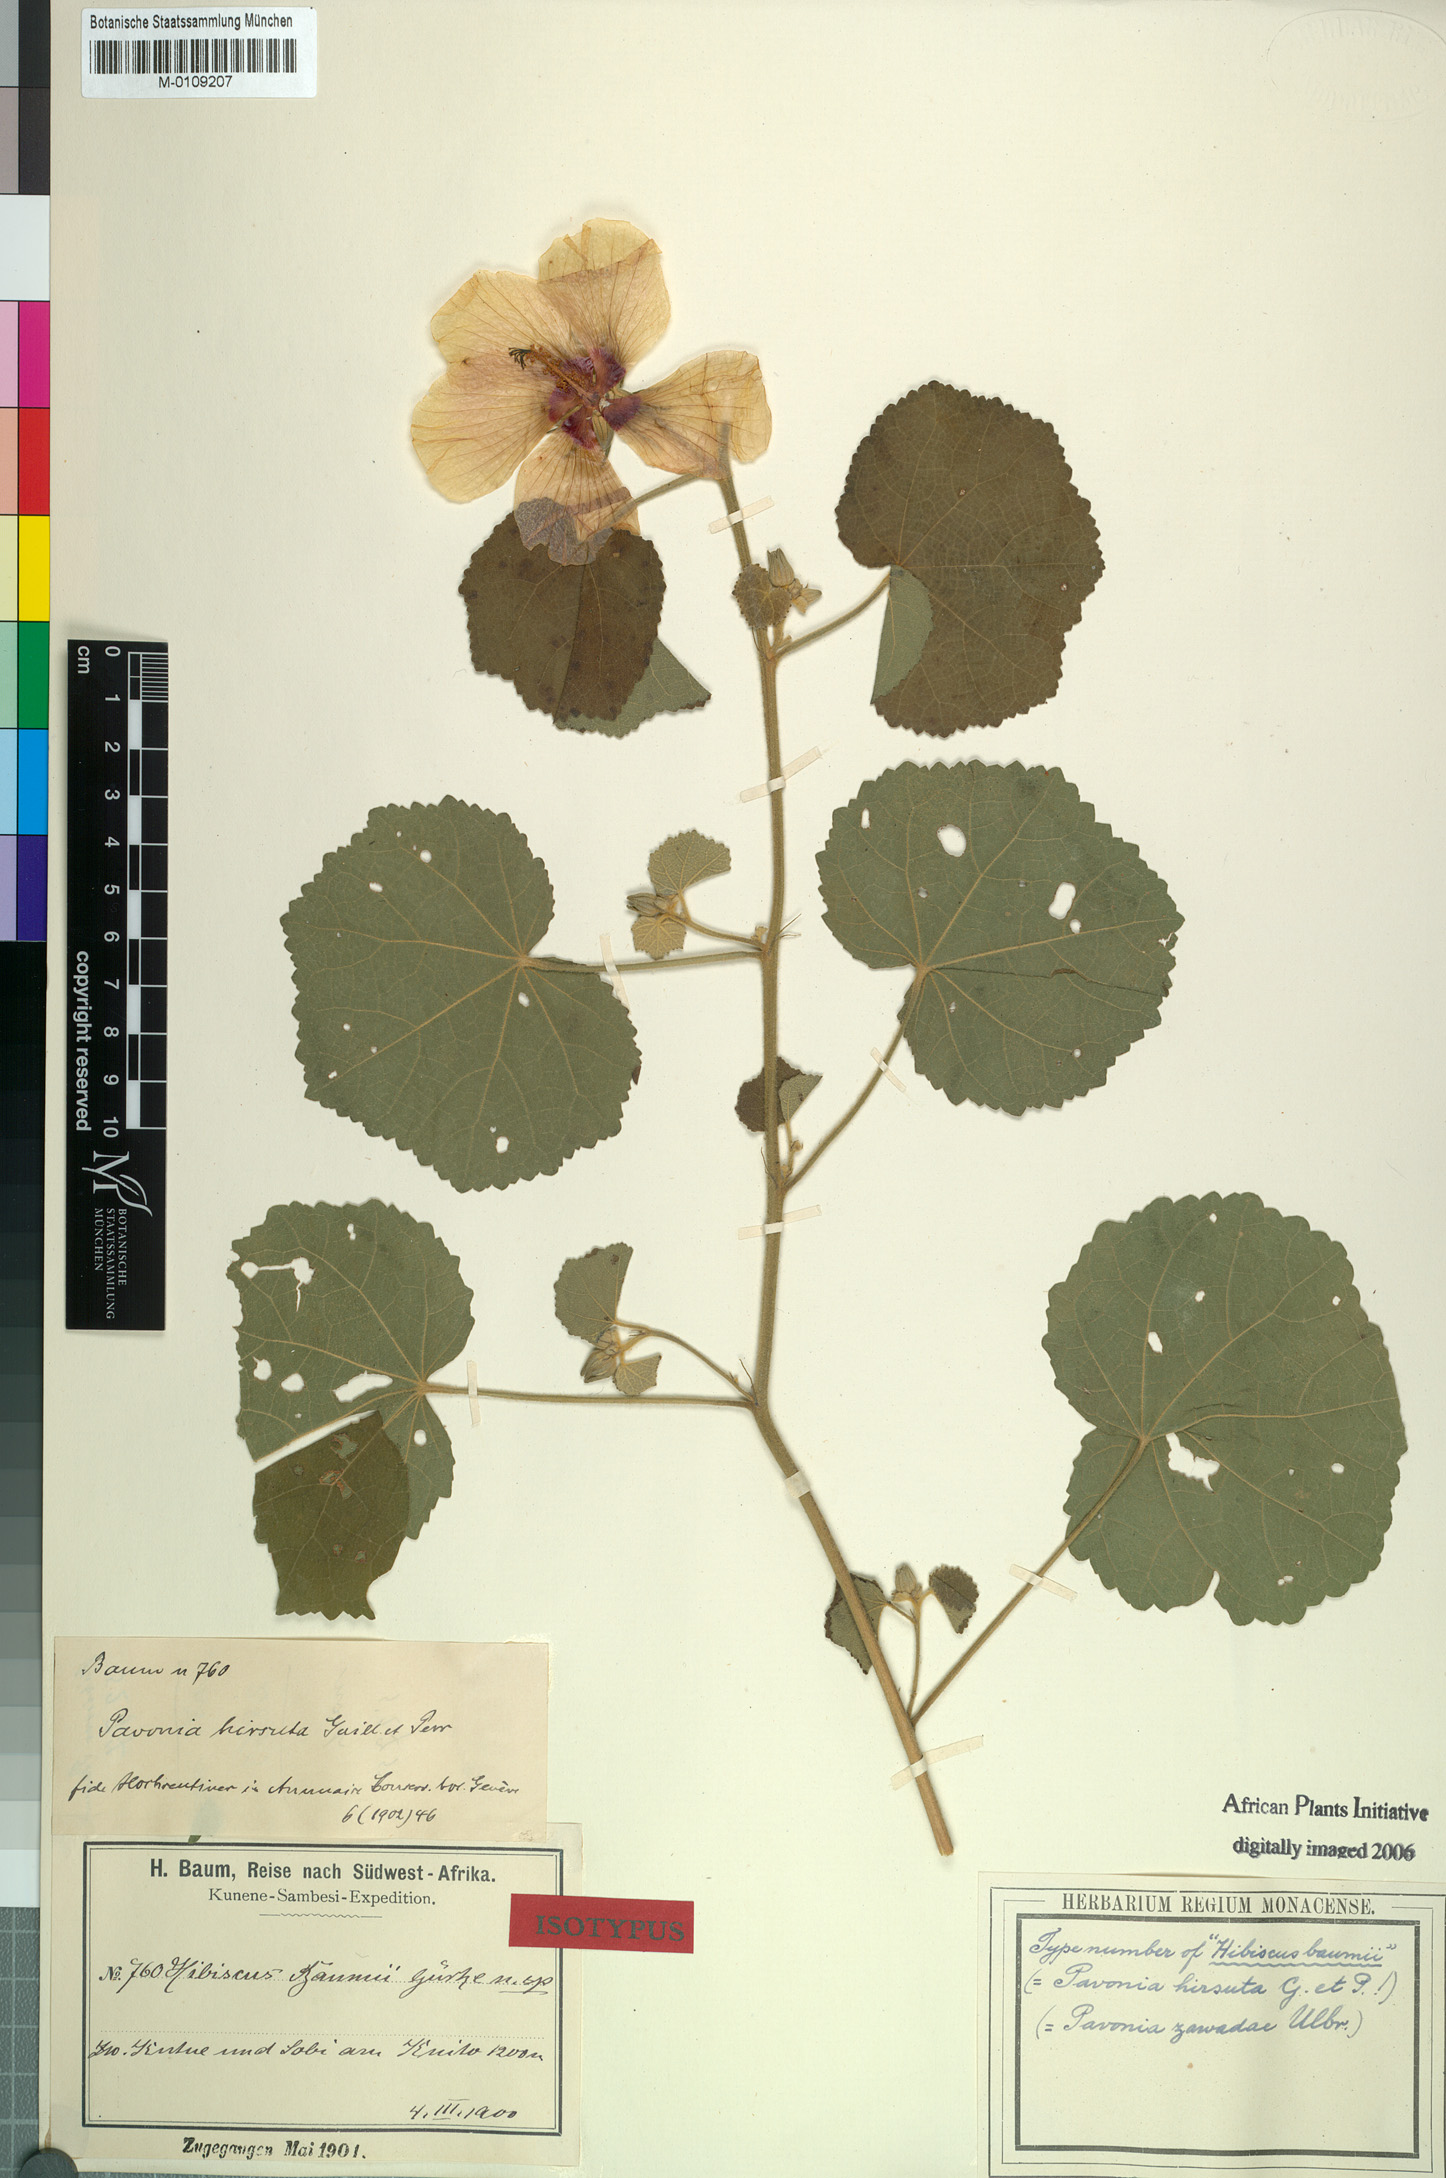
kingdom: Plantae
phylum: Tracheophyta
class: Magnoliopsida
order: Malvales
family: Malvaceae
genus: Pavonia
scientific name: Pavonia senegalensis
